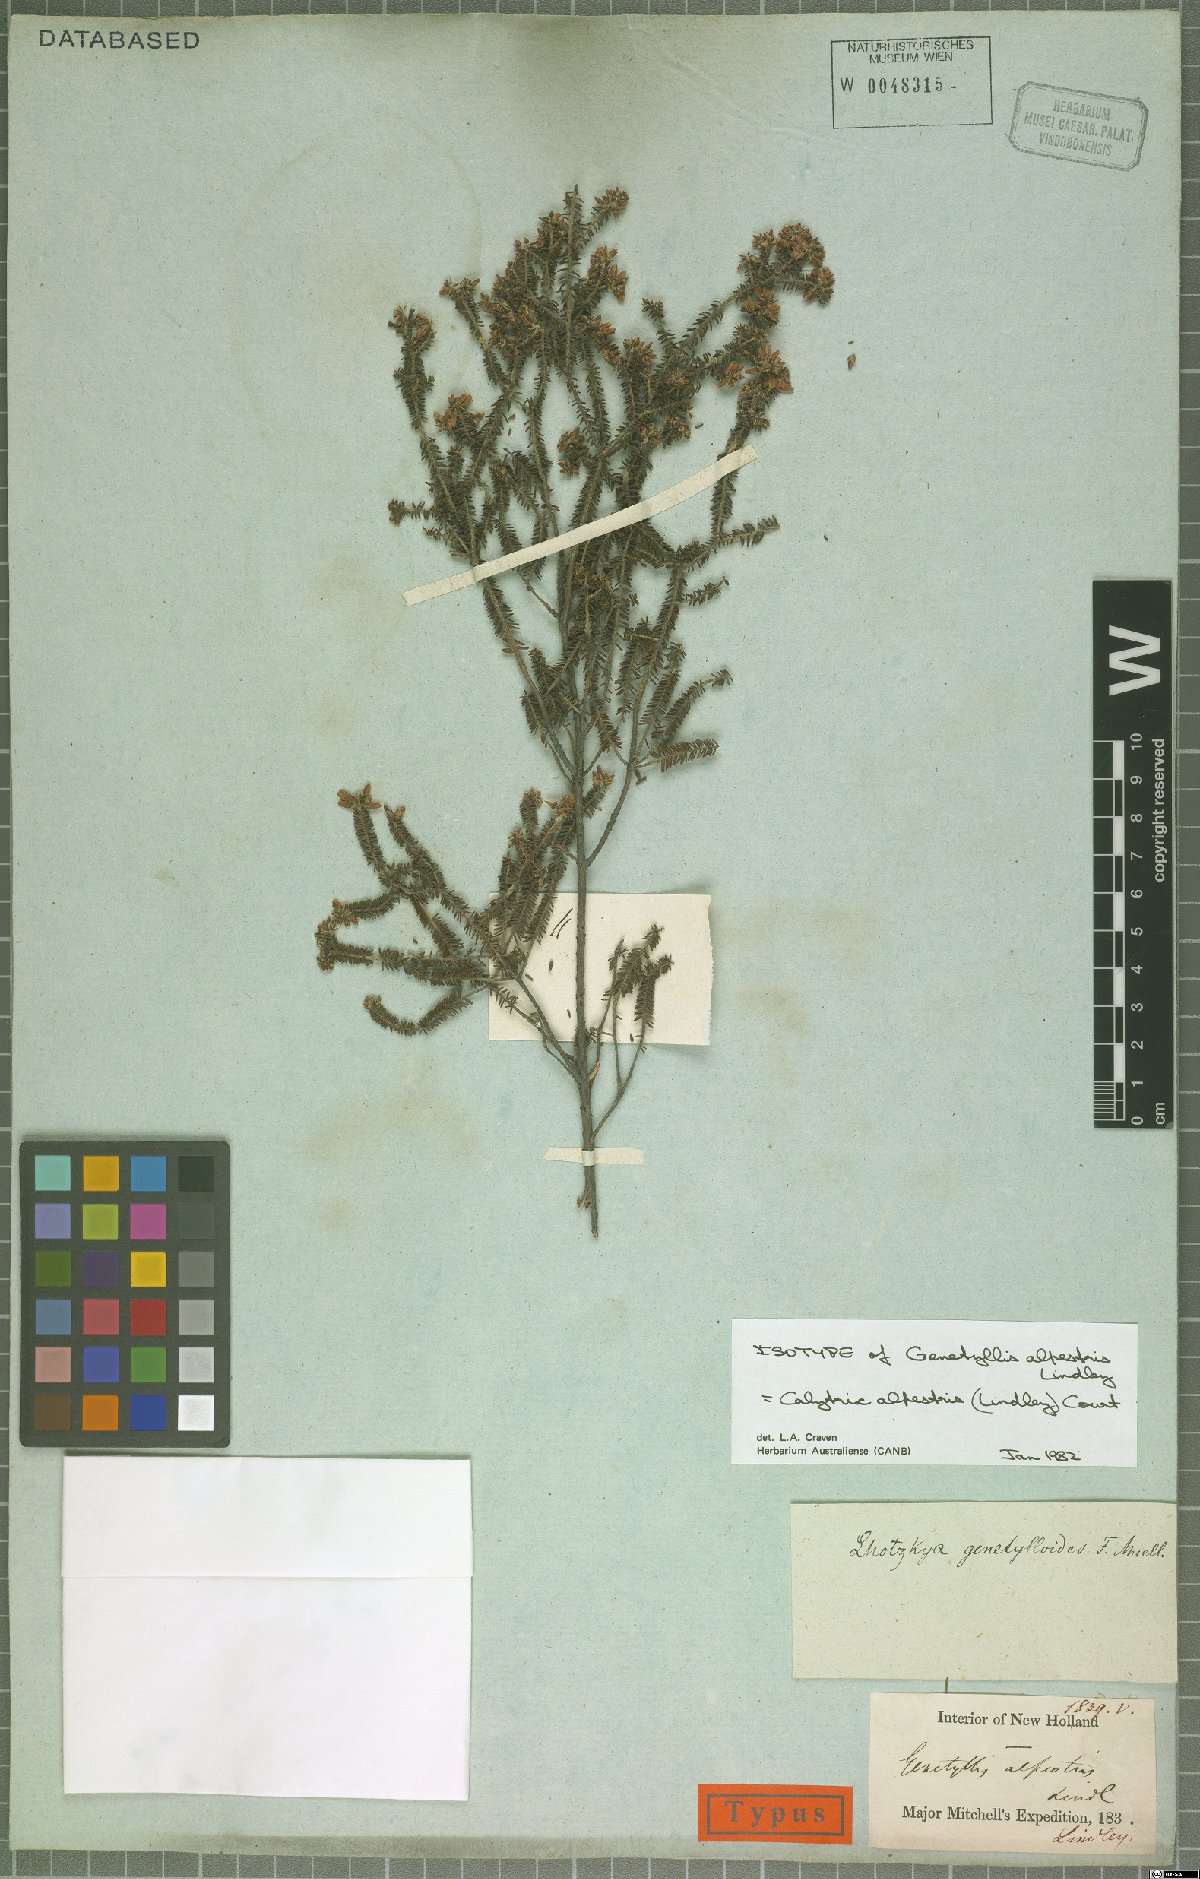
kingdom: Plantae
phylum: Tracheophyta
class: Magnoliopsida
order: Myrtales
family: Myrtaceae
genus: Calytrix
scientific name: Calytrix alpestris
